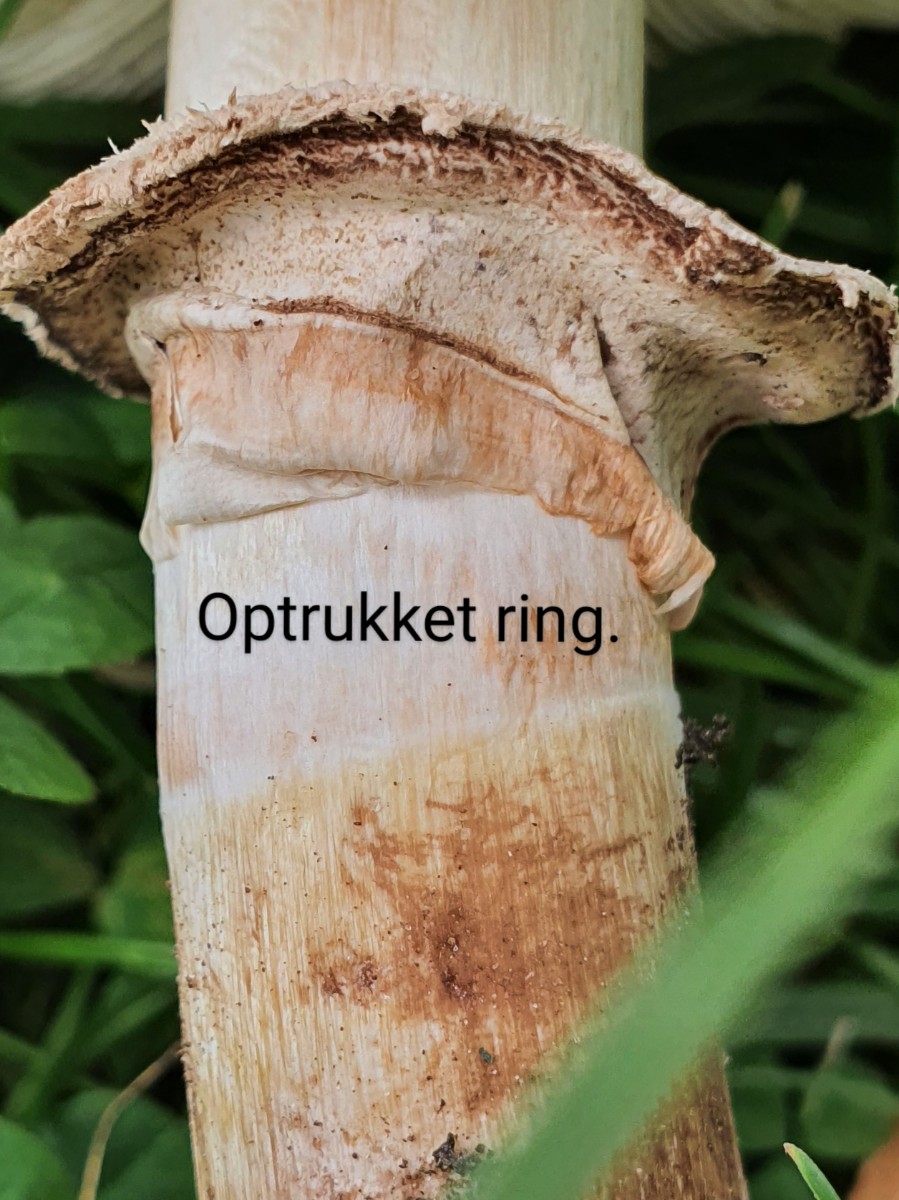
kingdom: Fungi
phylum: Basidiomycota
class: Agaricomycetes
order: Agaricales
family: Agaricaceae
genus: Chlorophyllum
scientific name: Chlorophyllum brunneum
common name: giftig rabarberhat
